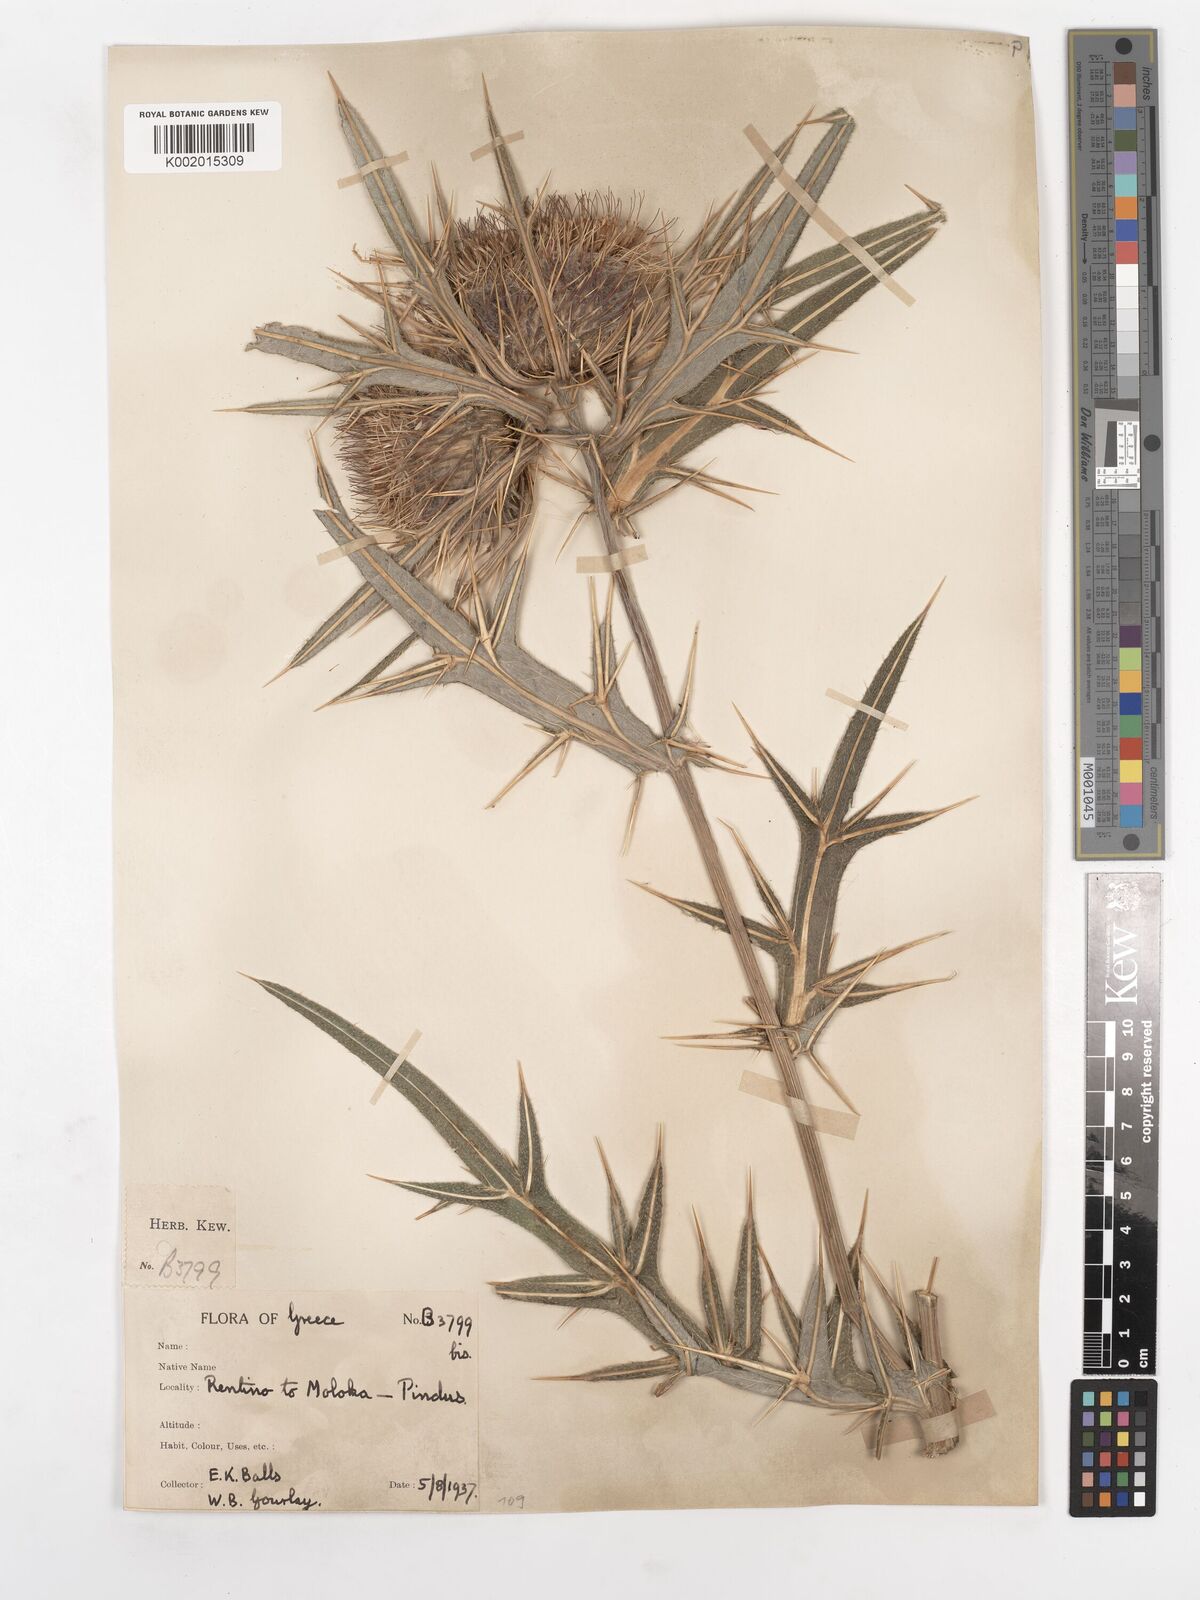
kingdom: Plantae
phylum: Tracheophyta
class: Magnoliopsida
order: Asterales
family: Asteraceae
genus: Lophiolepis
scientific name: Lophiolepis eriophora
